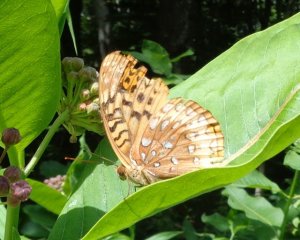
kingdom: Animalia
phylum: Arthropoda
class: Insecta
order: Lepidoptera
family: Nymphalidae
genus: Speyeria
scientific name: Speyeria cybele
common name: Great Spangled Fritillary
